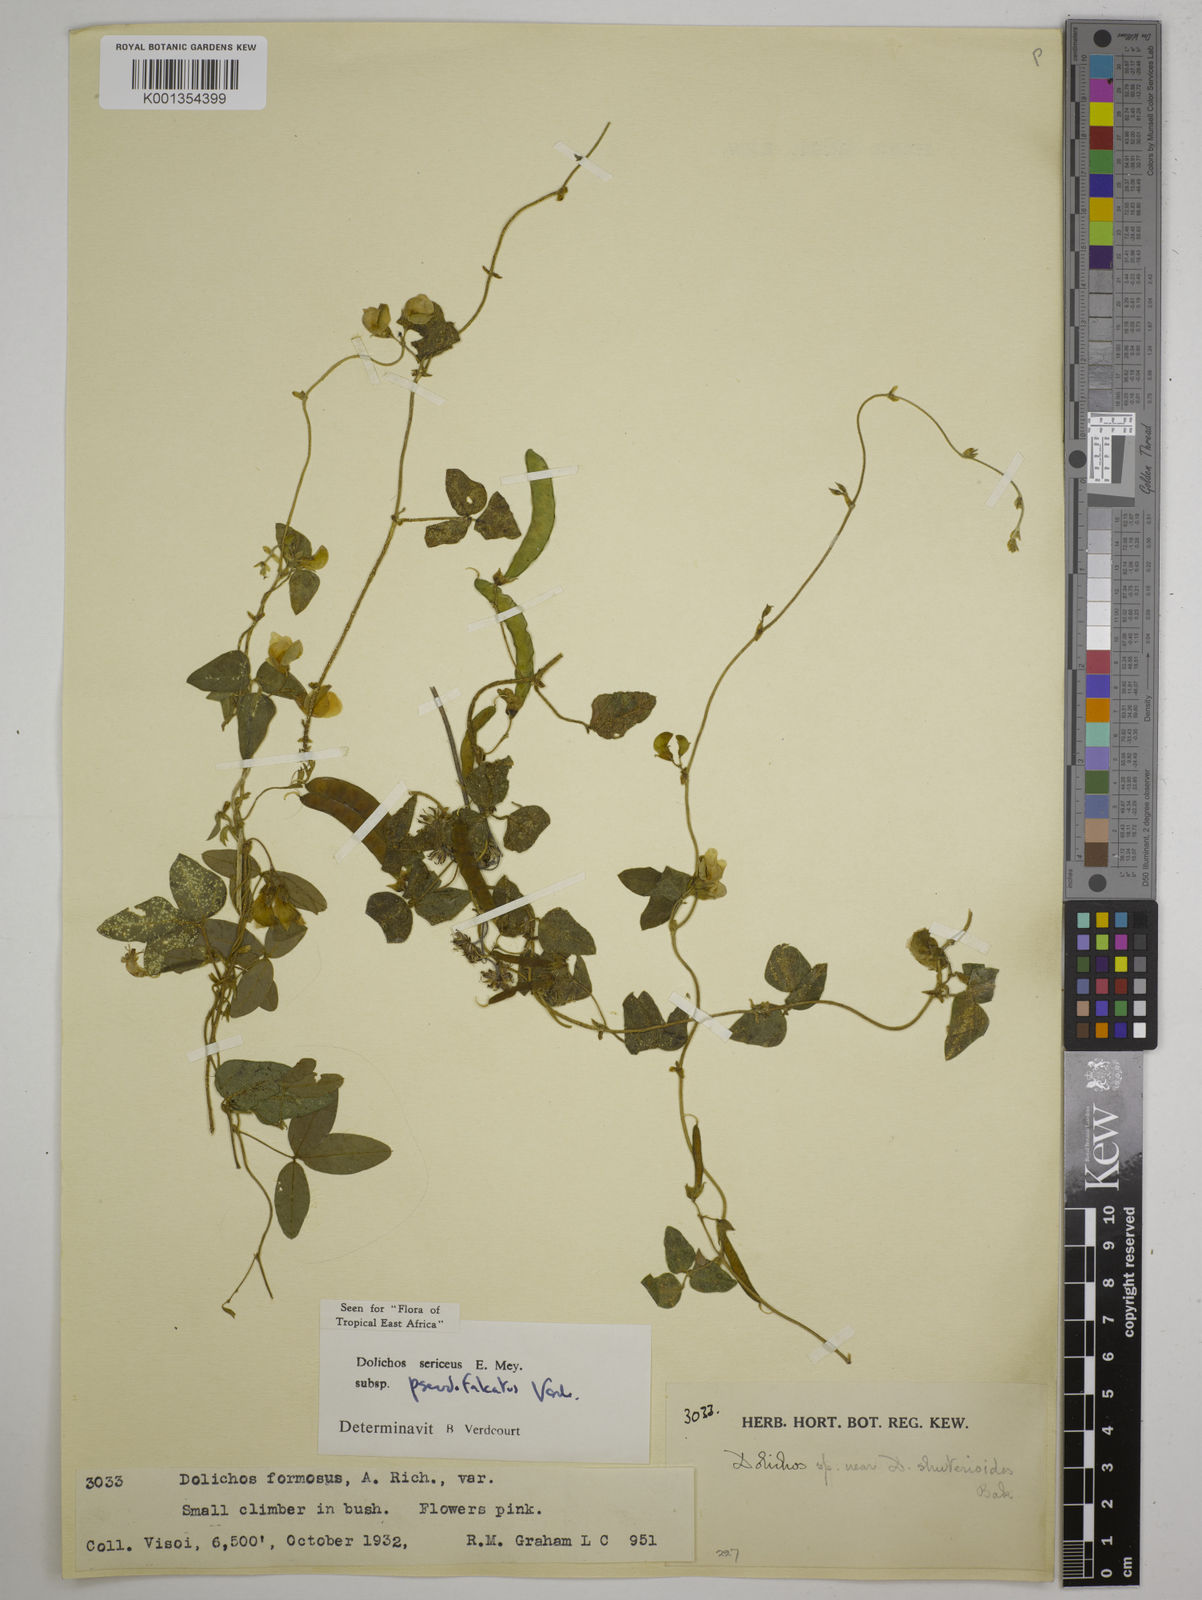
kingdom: Plantae
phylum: Tracheophyta
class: Magnoliopsida
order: Fabales
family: Fabaceae
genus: Dolichos
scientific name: Dolichos
